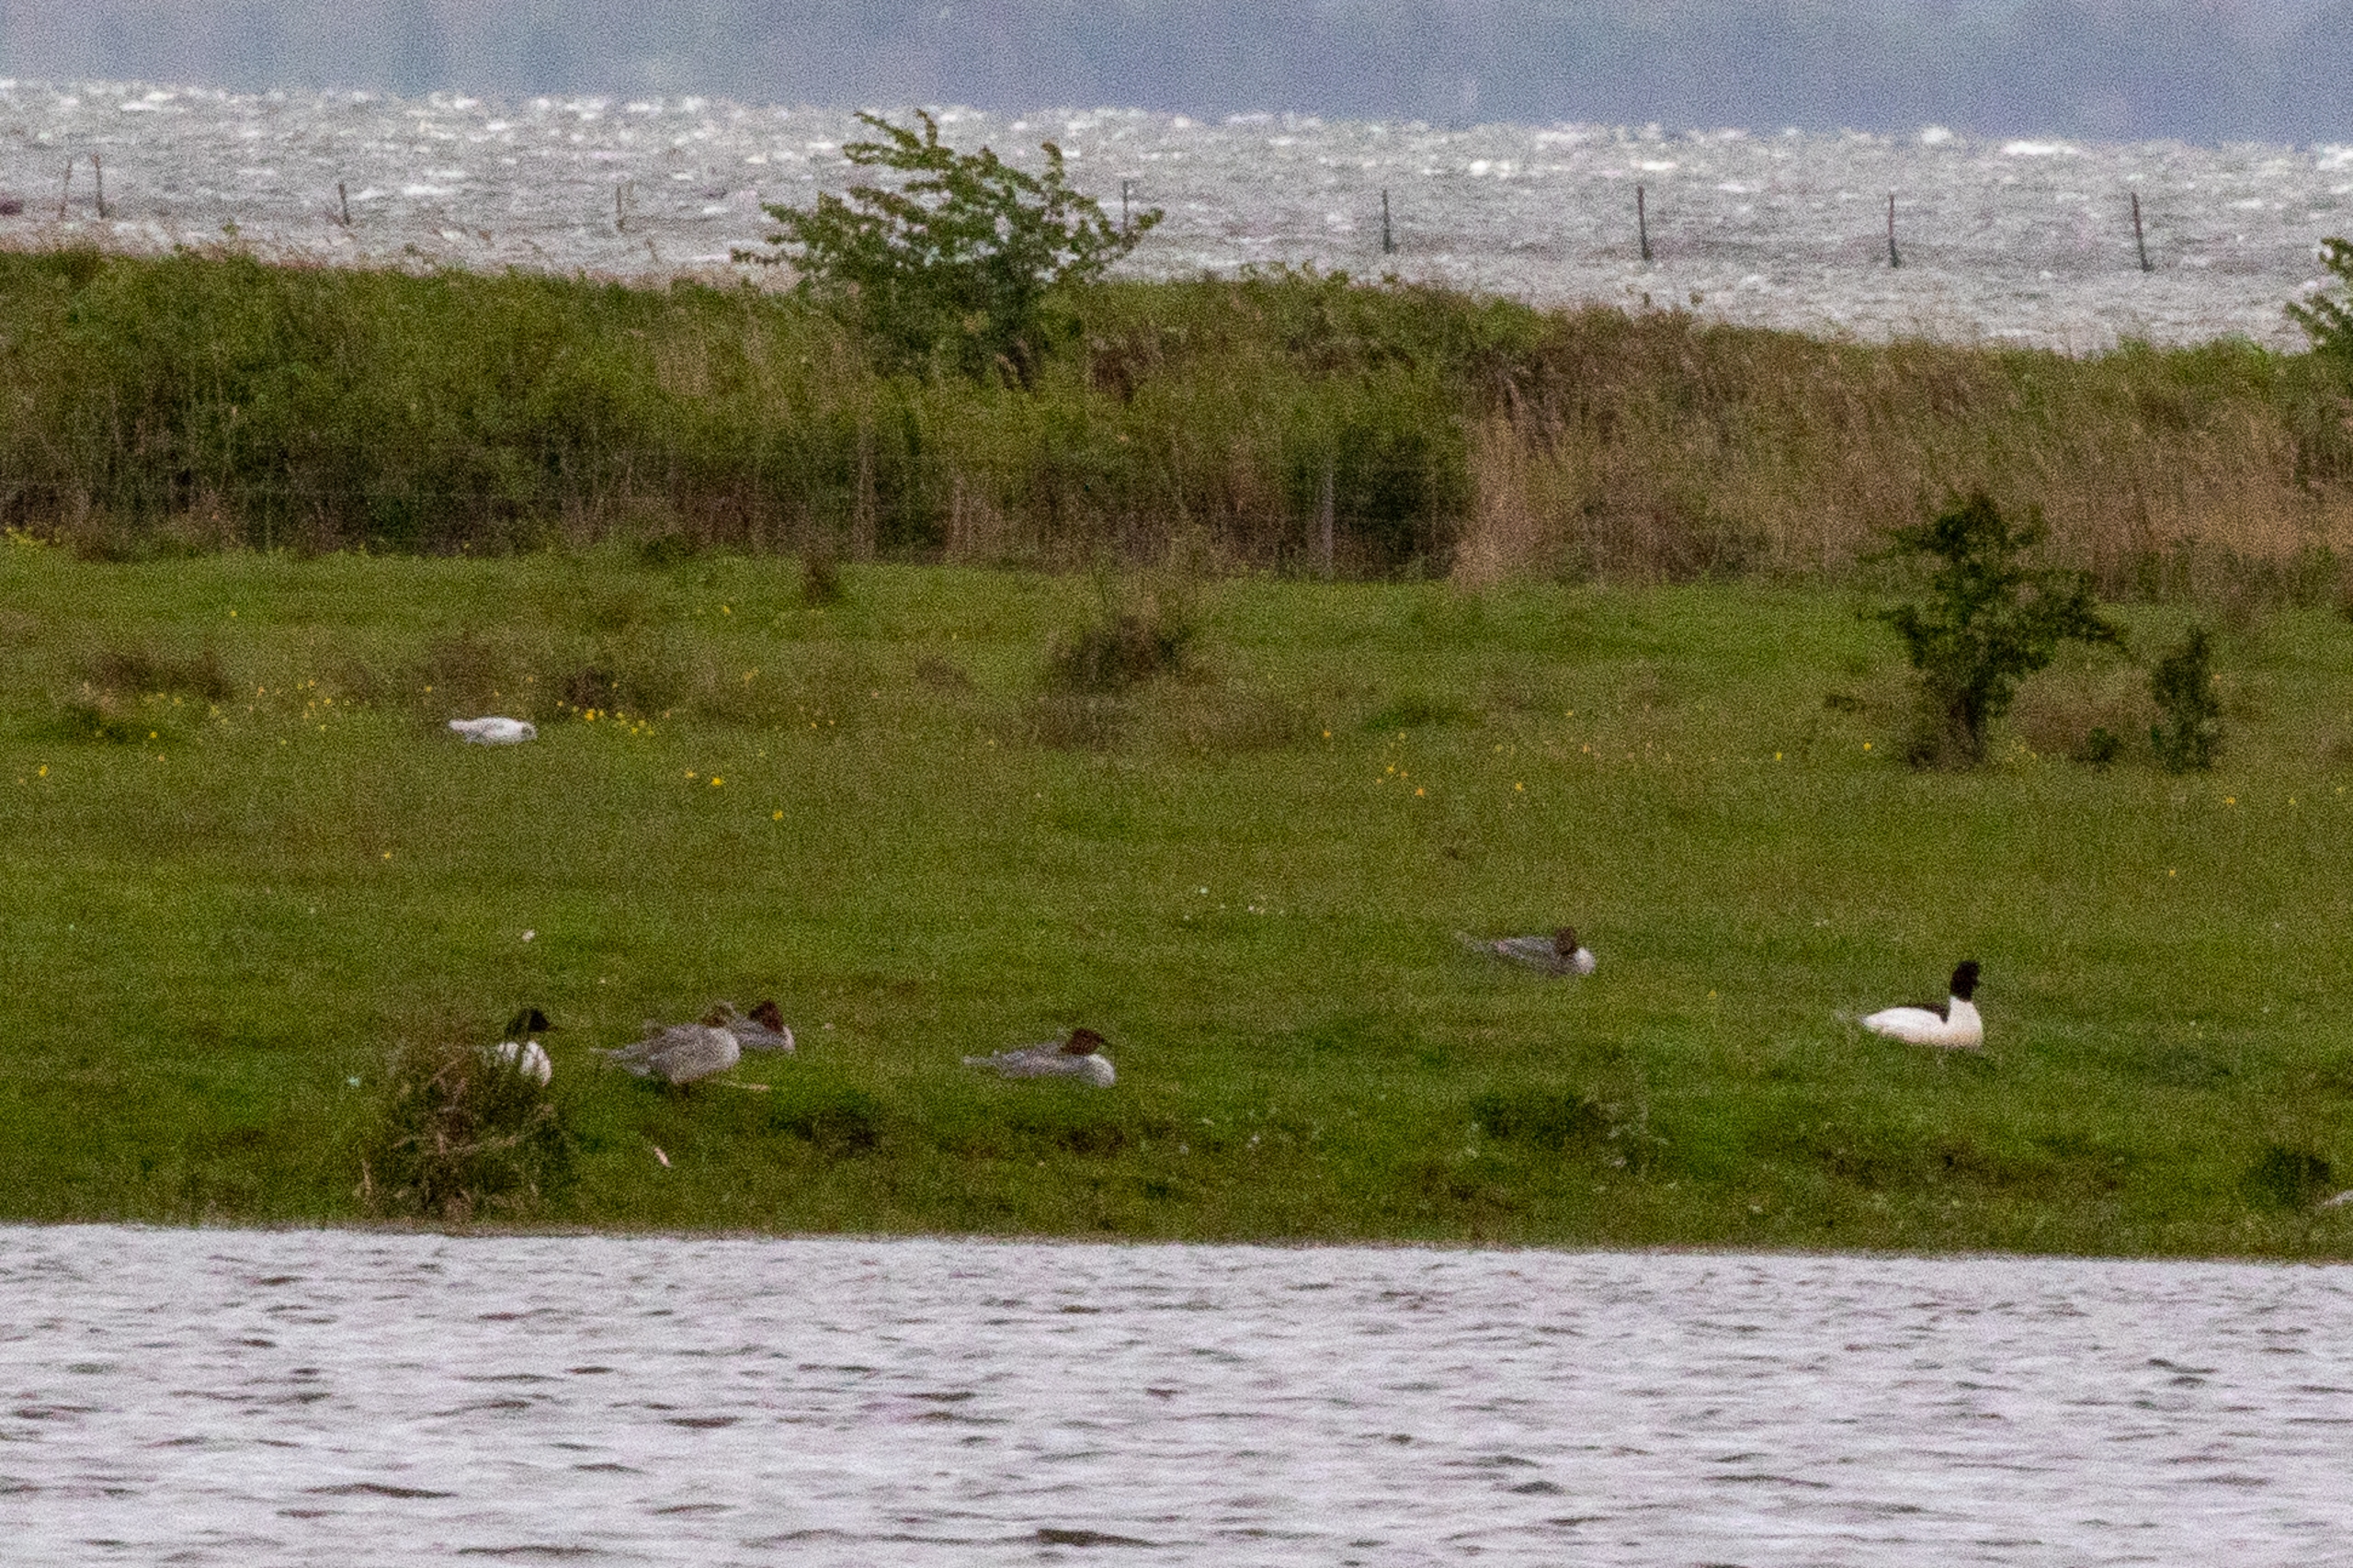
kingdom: Animalia
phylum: Chordata
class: Aves
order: Anseriformes
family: Anatidae
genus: Mergus
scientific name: Mergus merganser
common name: Stor skallesluger
